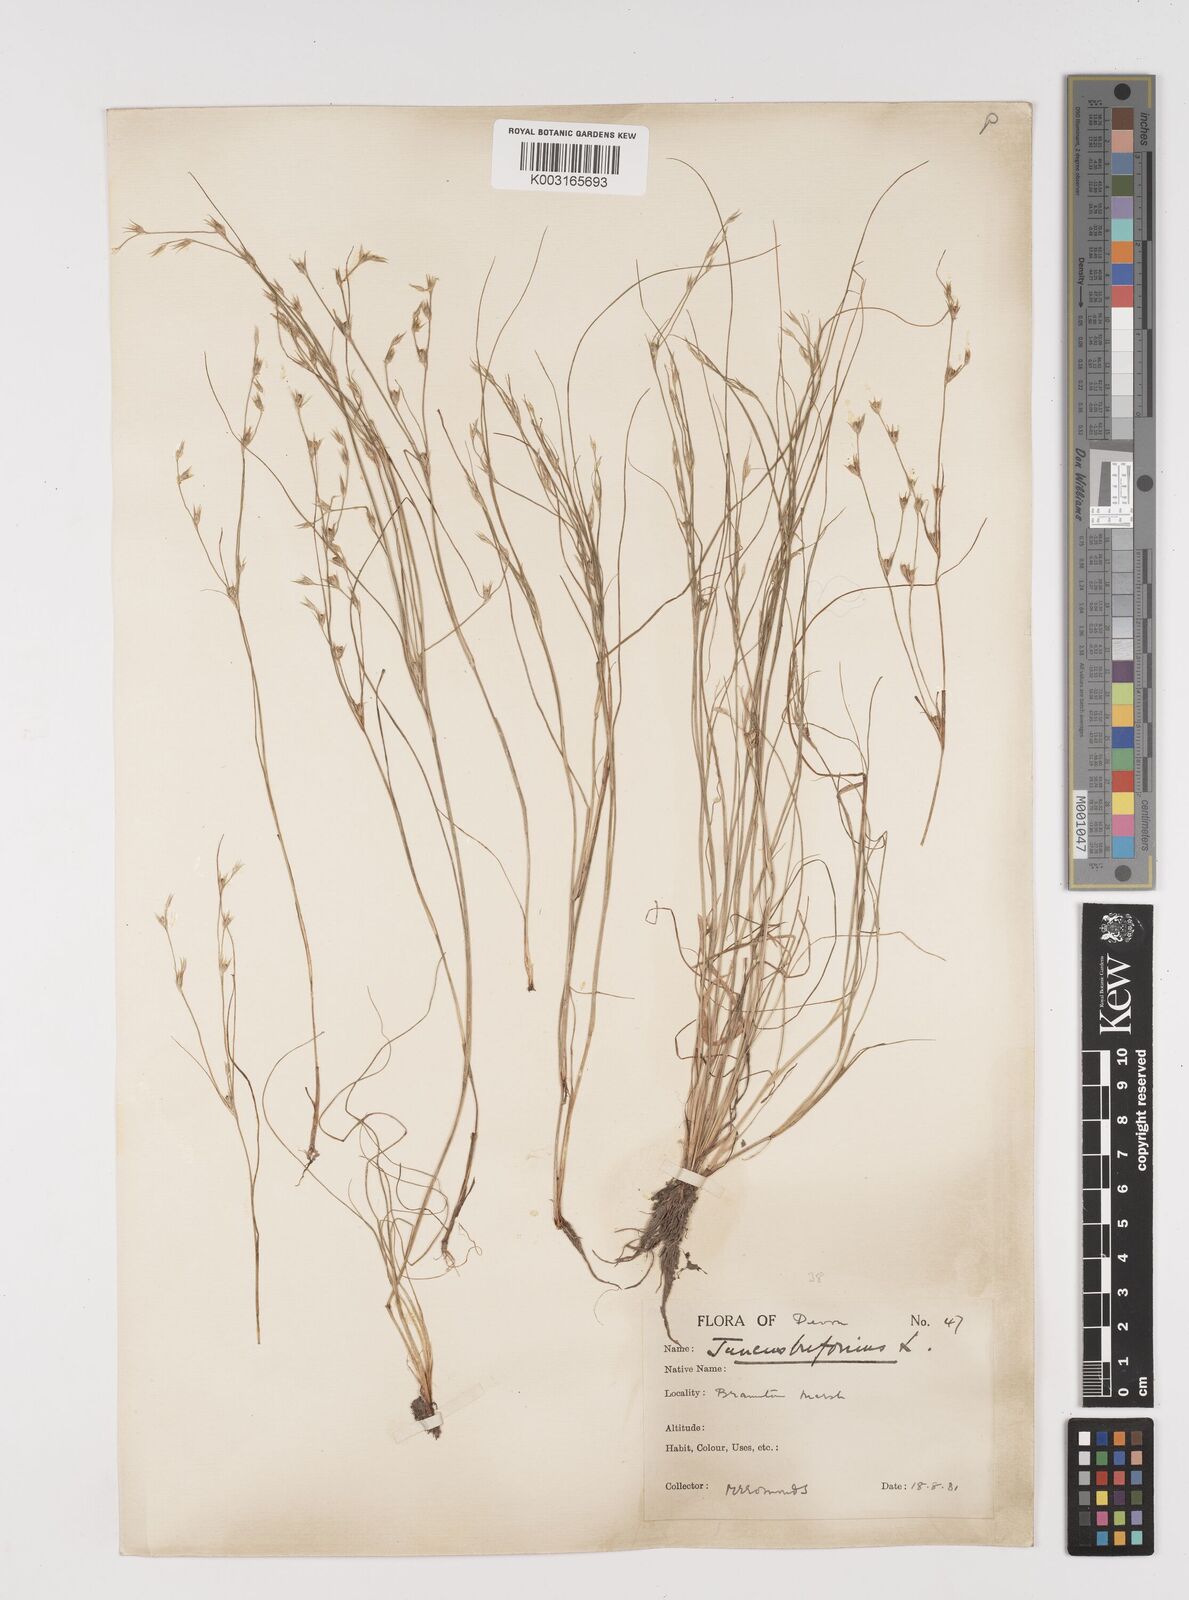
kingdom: Plantae
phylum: Tracheophyta
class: Liliopsida
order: Poales
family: Juncaceae
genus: Juncus
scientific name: Juncus bufonius
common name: Toad rush
